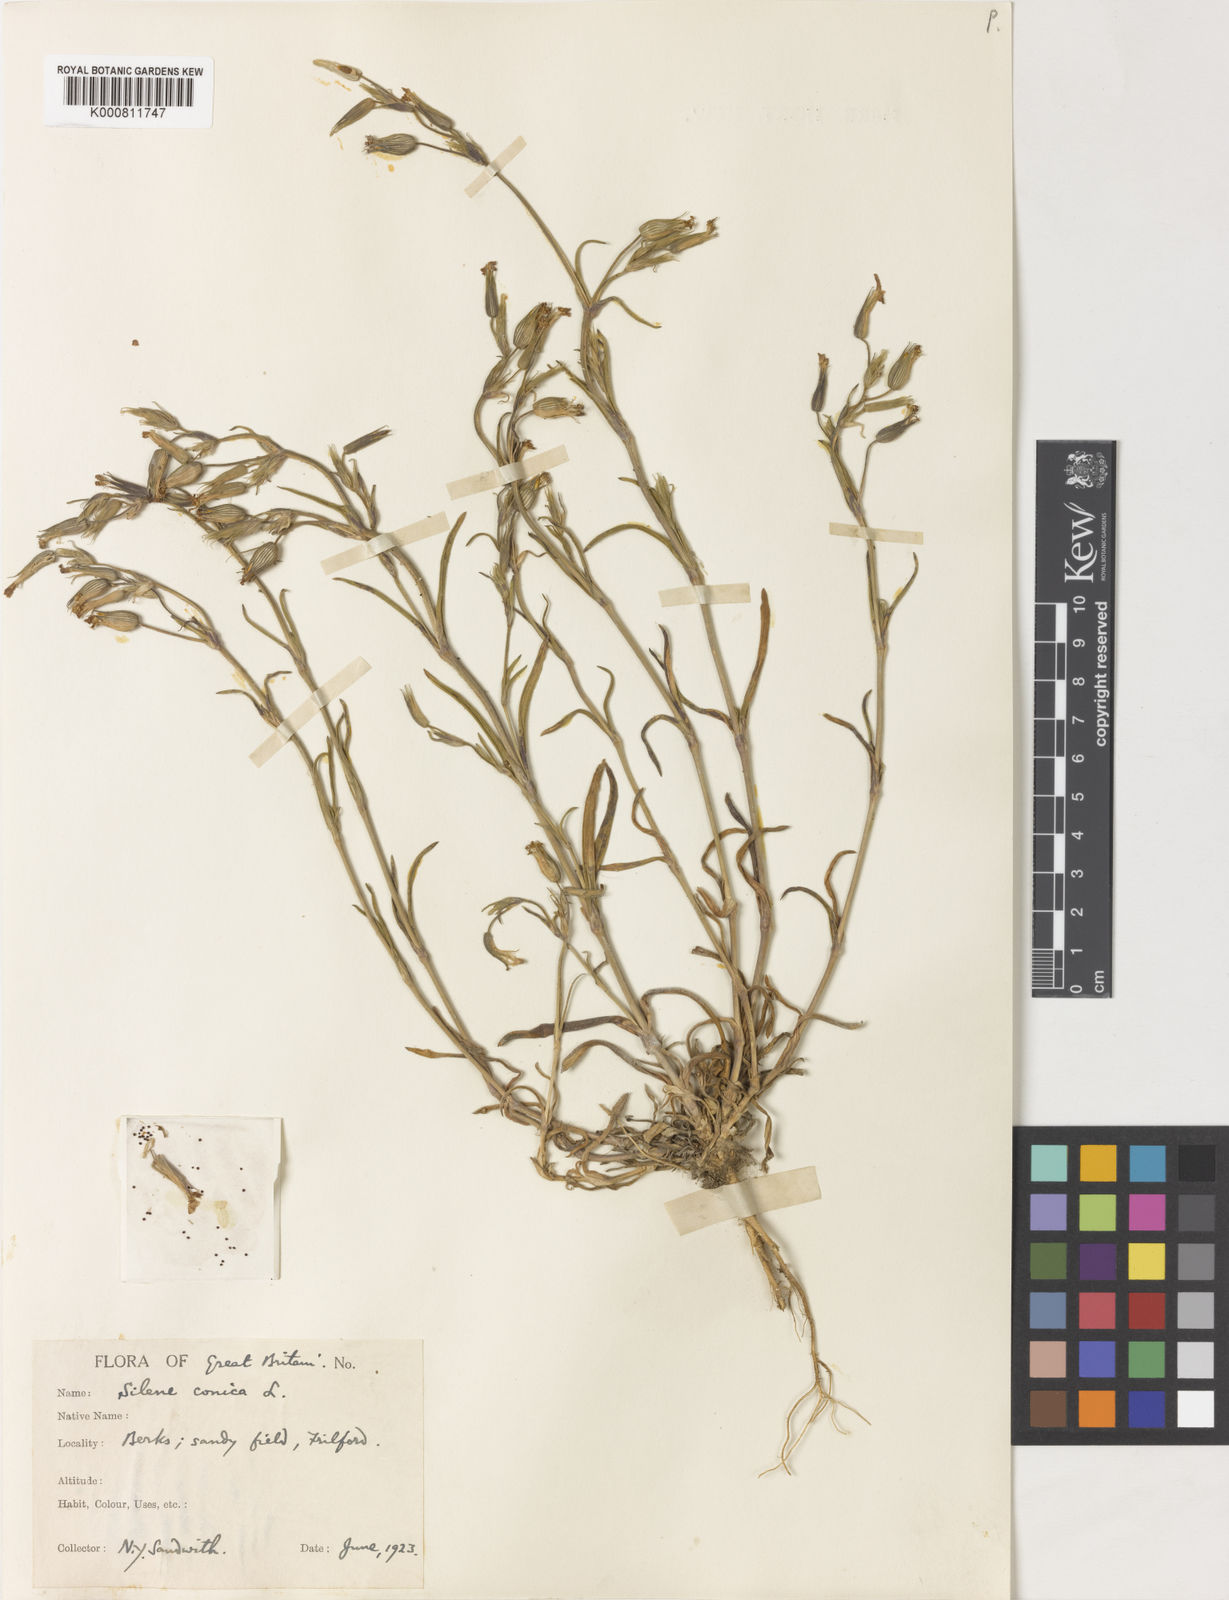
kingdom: Plantae
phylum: Tracheophyta
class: Magnoliopsida
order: Caryophyllales
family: Caryophyllaceae
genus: Silene
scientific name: Silene conica
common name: Sand catchfly
